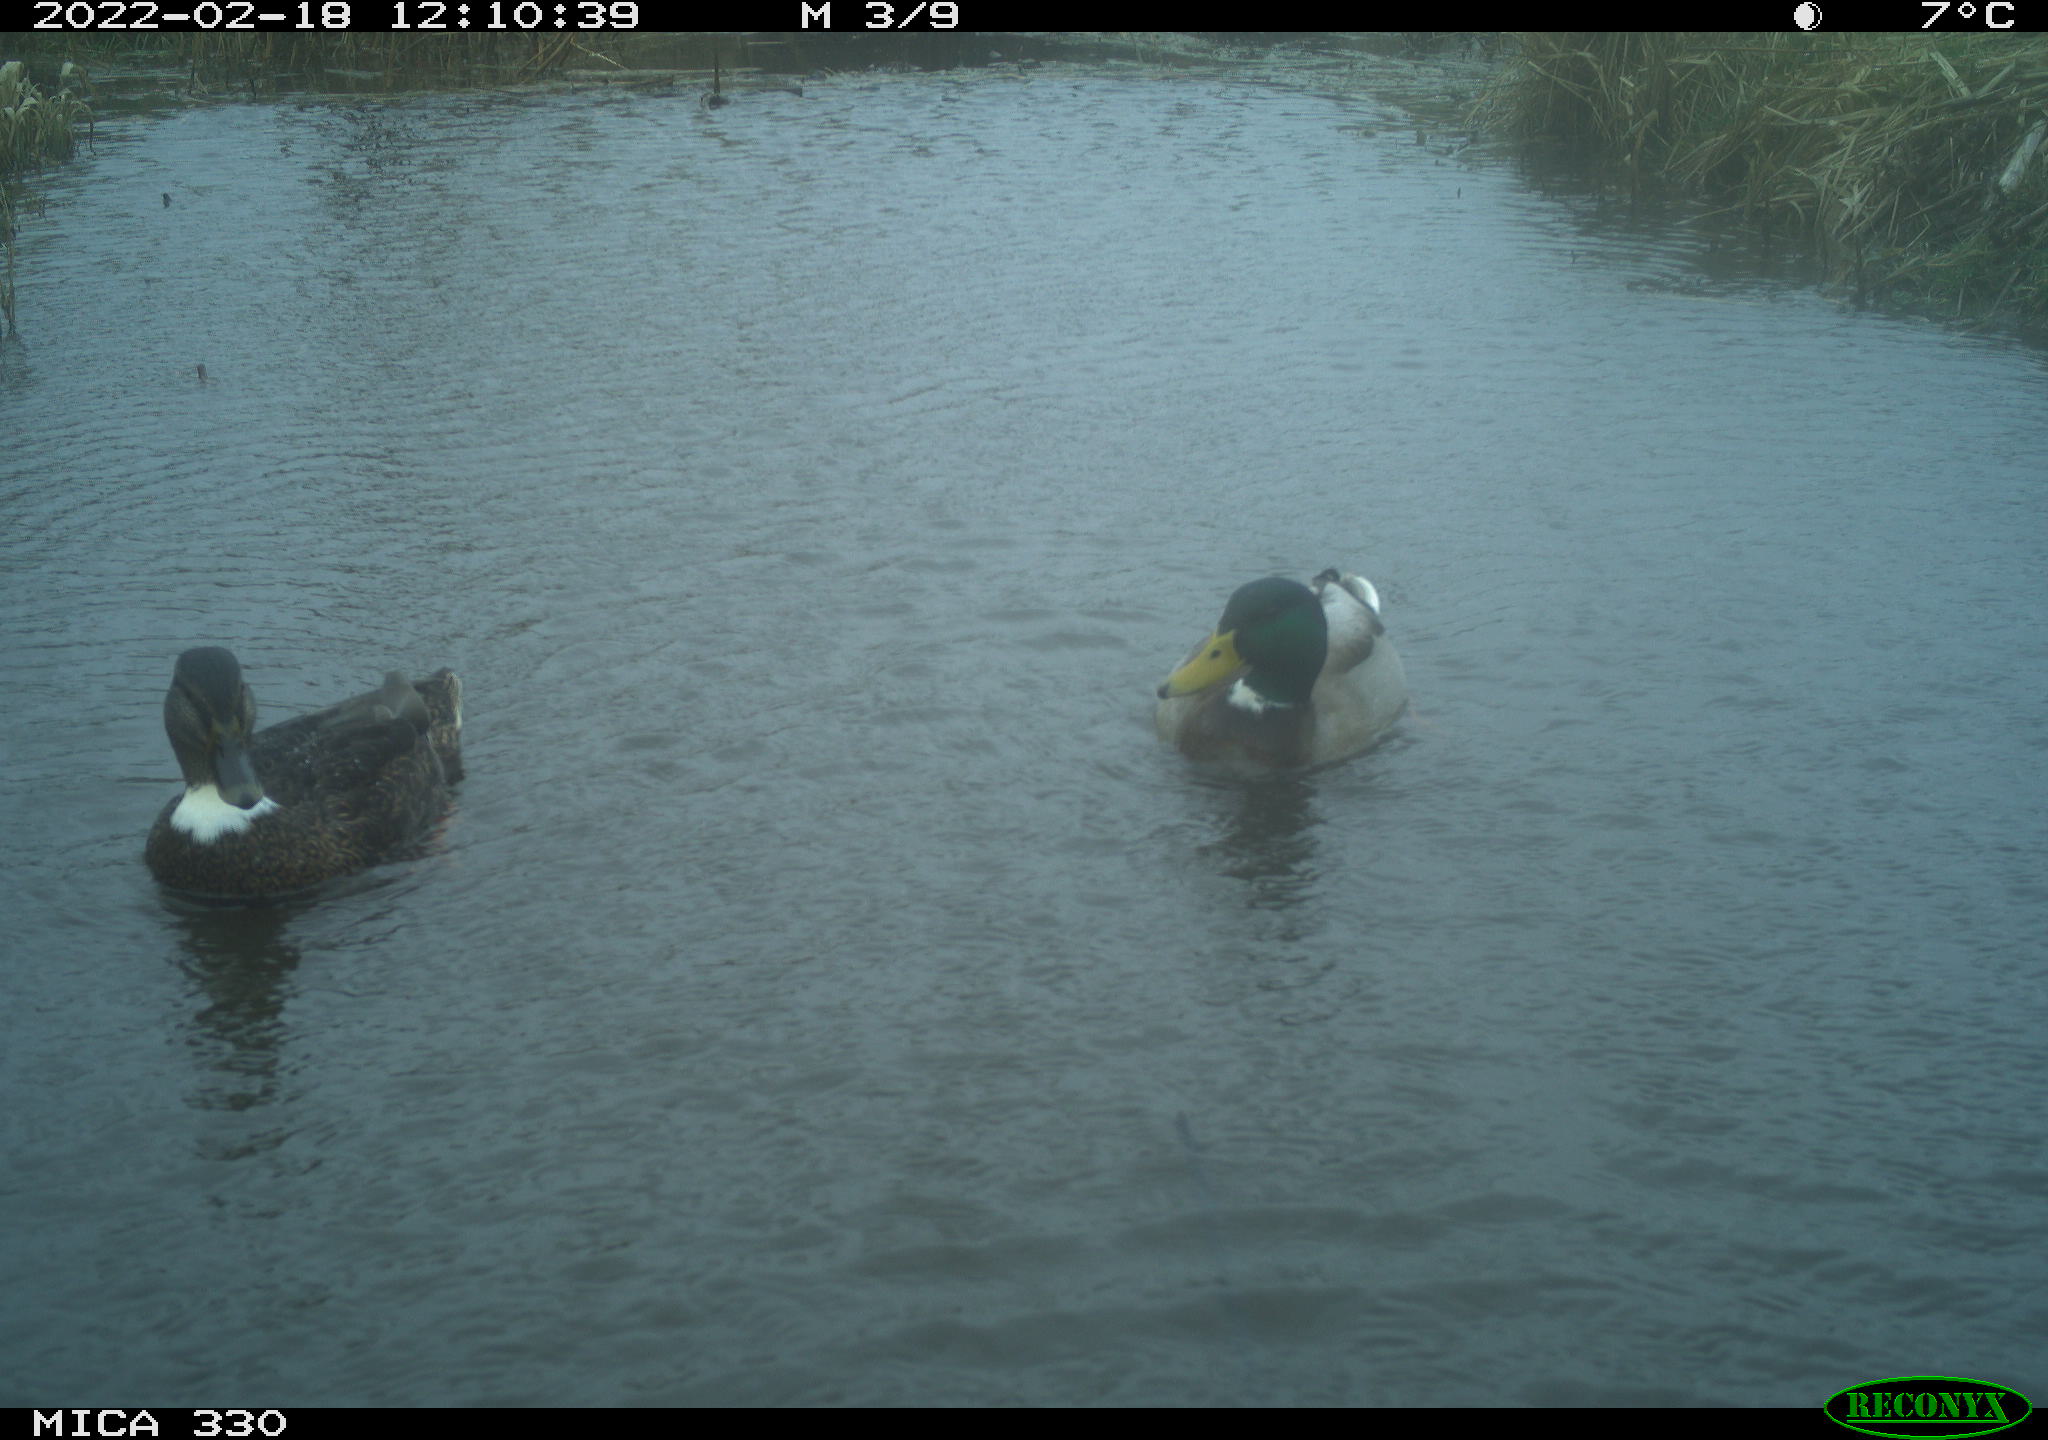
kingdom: Animalia
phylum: Chordata
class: Aves
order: Anseriformes
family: Anatidae
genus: Anas
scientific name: Anas platyrhynchos
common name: Mallard
